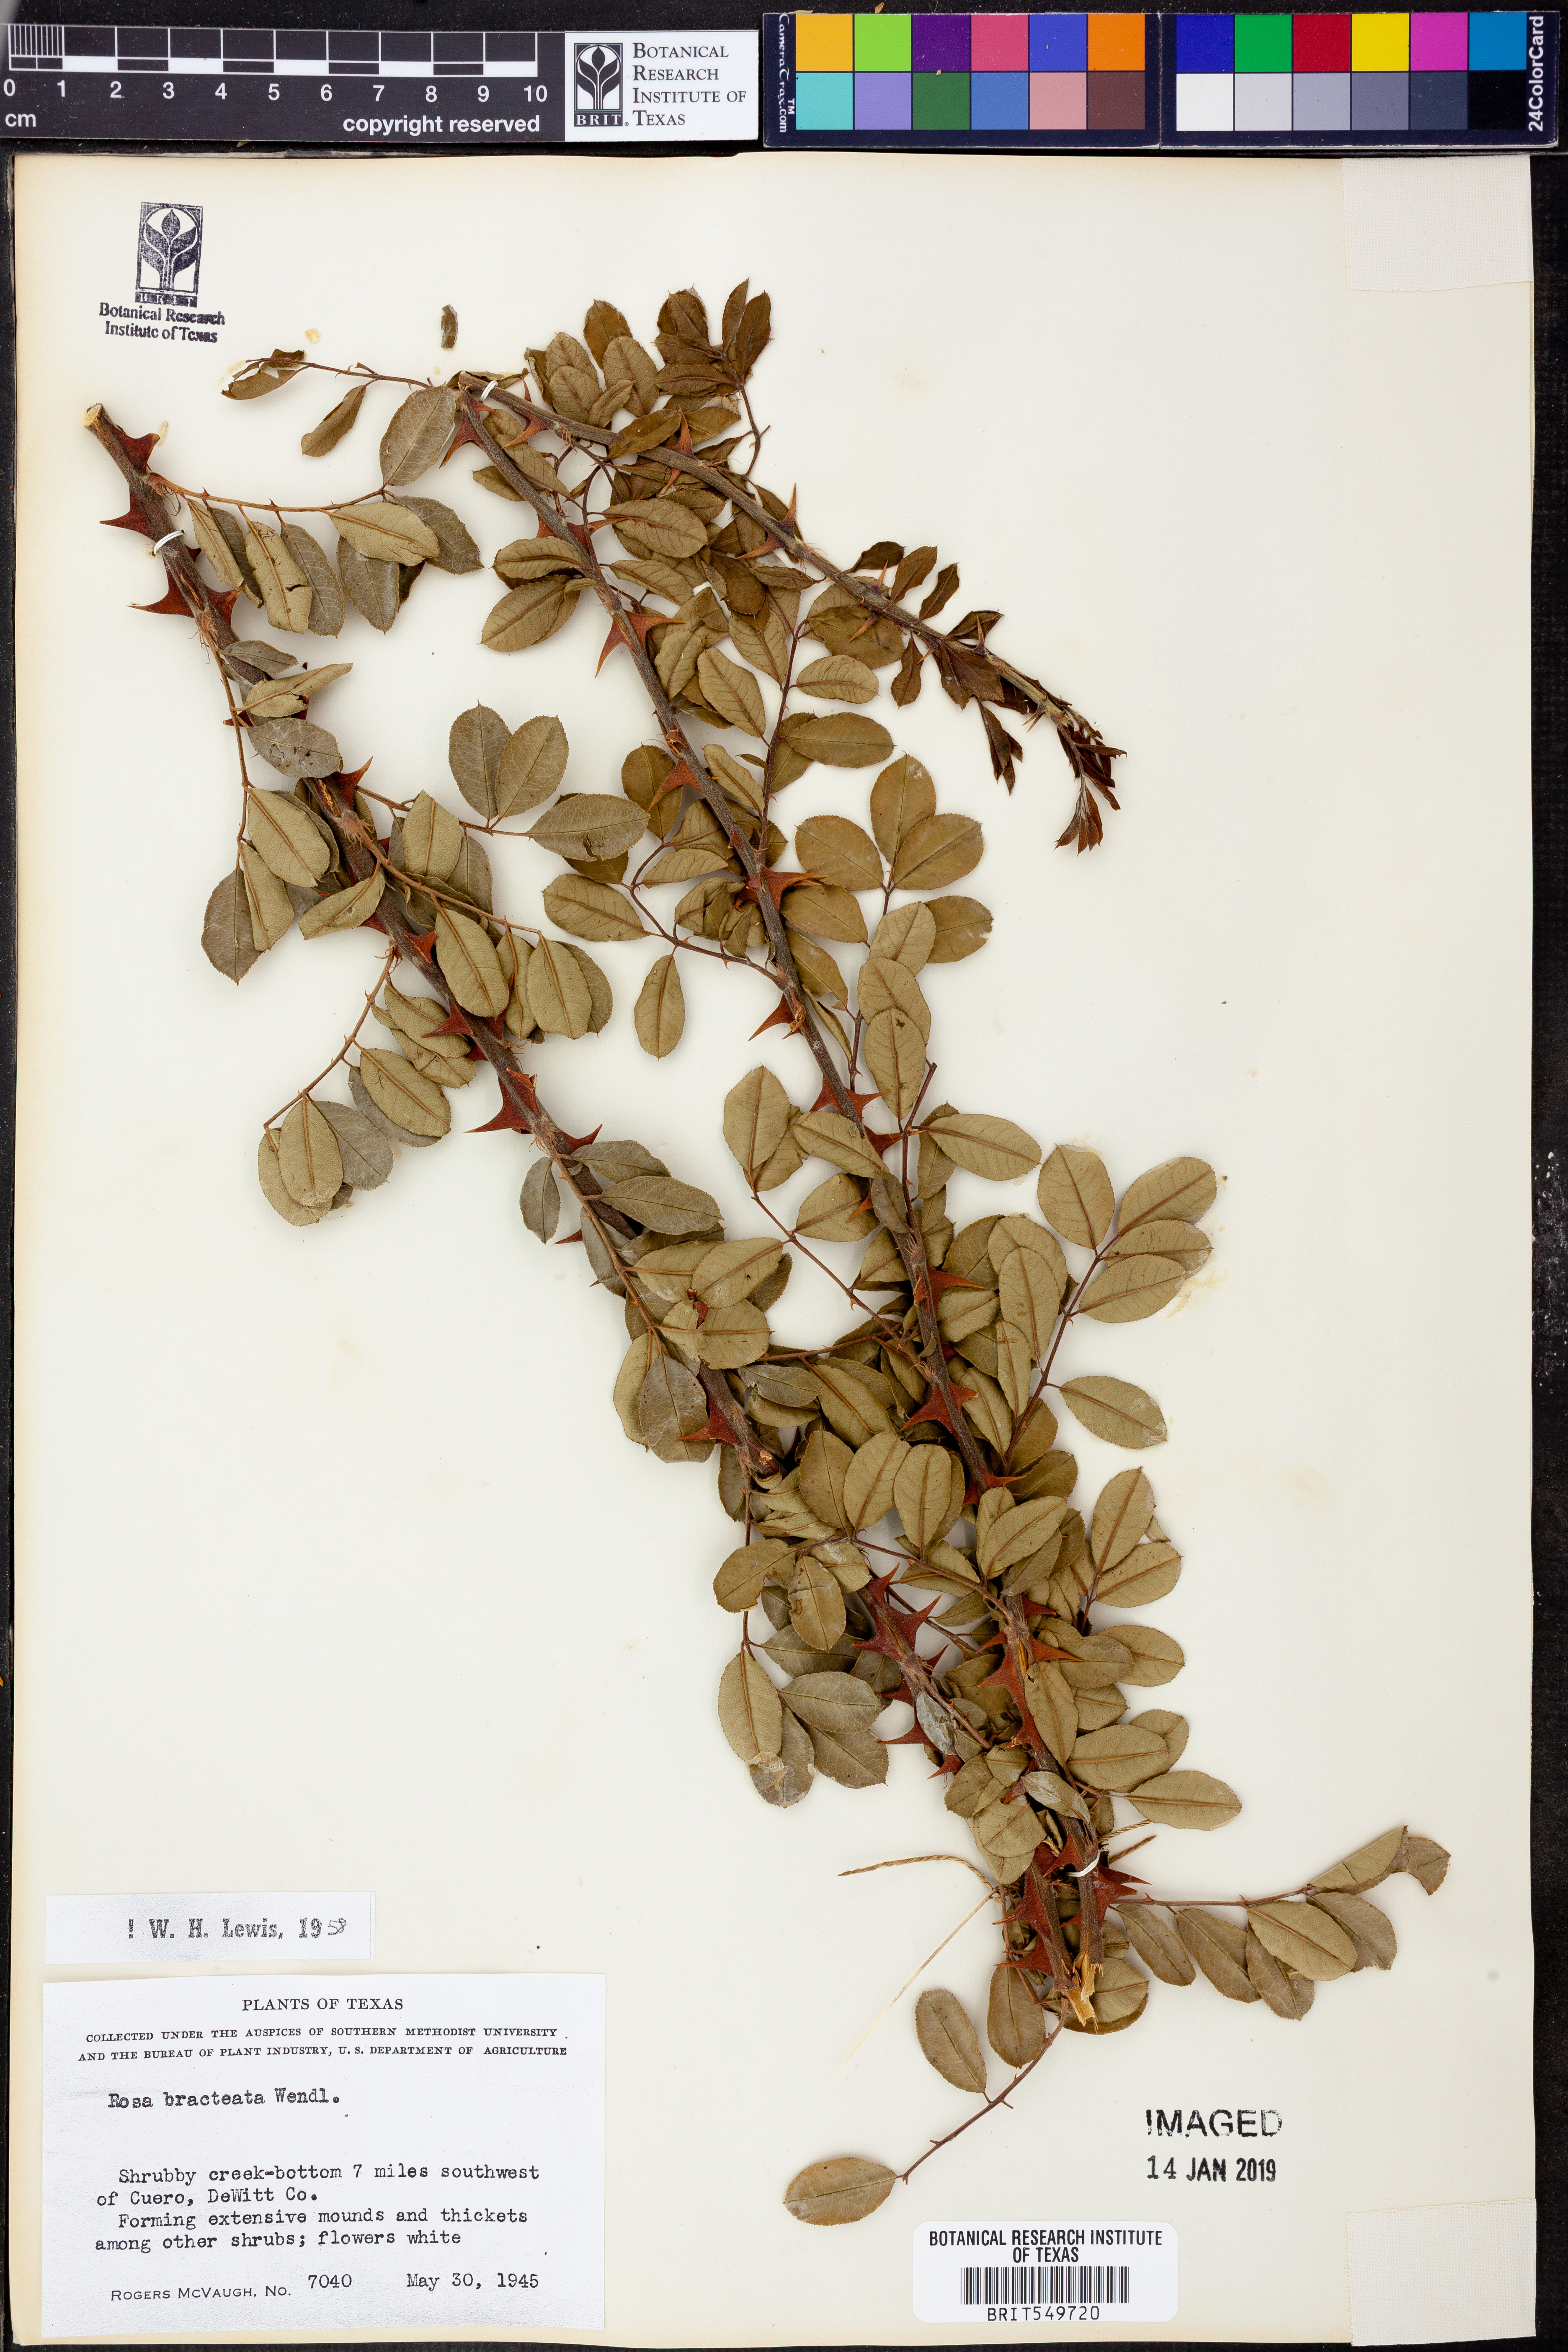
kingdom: Plantae
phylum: Tracheophyta
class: Magnoliopsida
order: Rosales
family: Rosaceae
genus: Rosa
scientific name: Rosa bracteata
